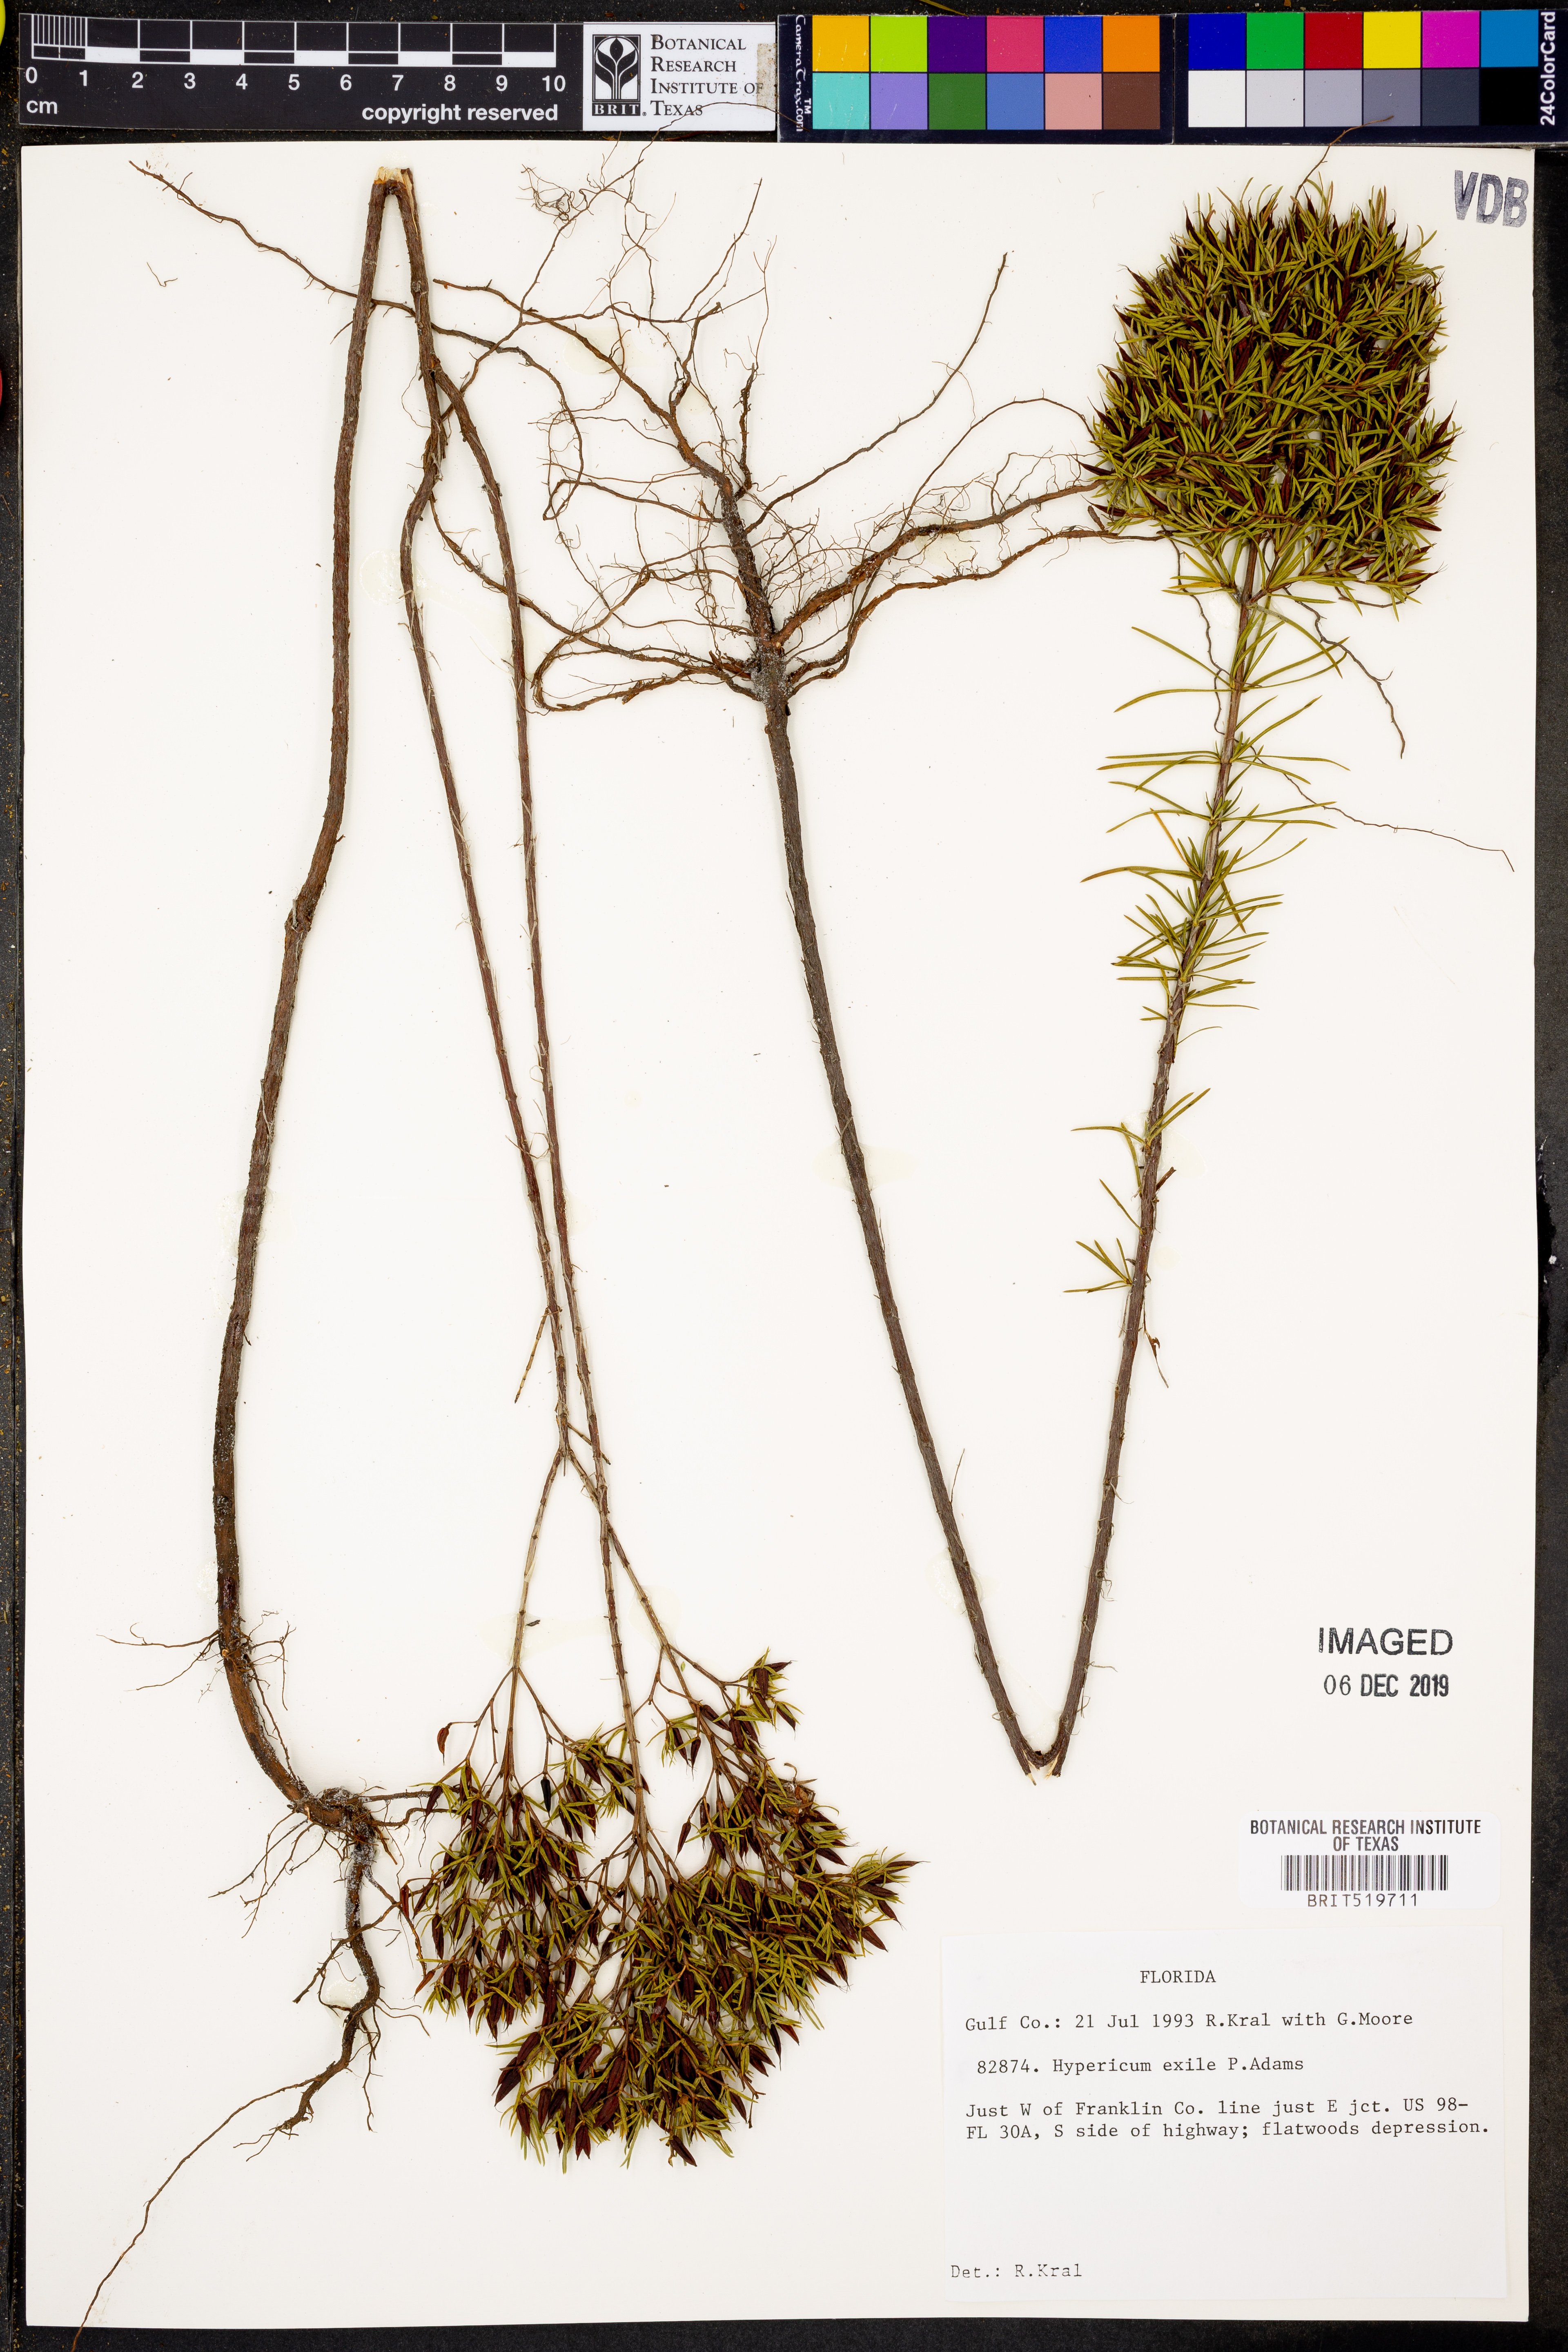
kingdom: Plantae
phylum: Tracheophyta
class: Magnoliopsida
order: Malpighiales
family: Hypericaceae
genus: Hypericum
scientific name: Hypericum nitidum
